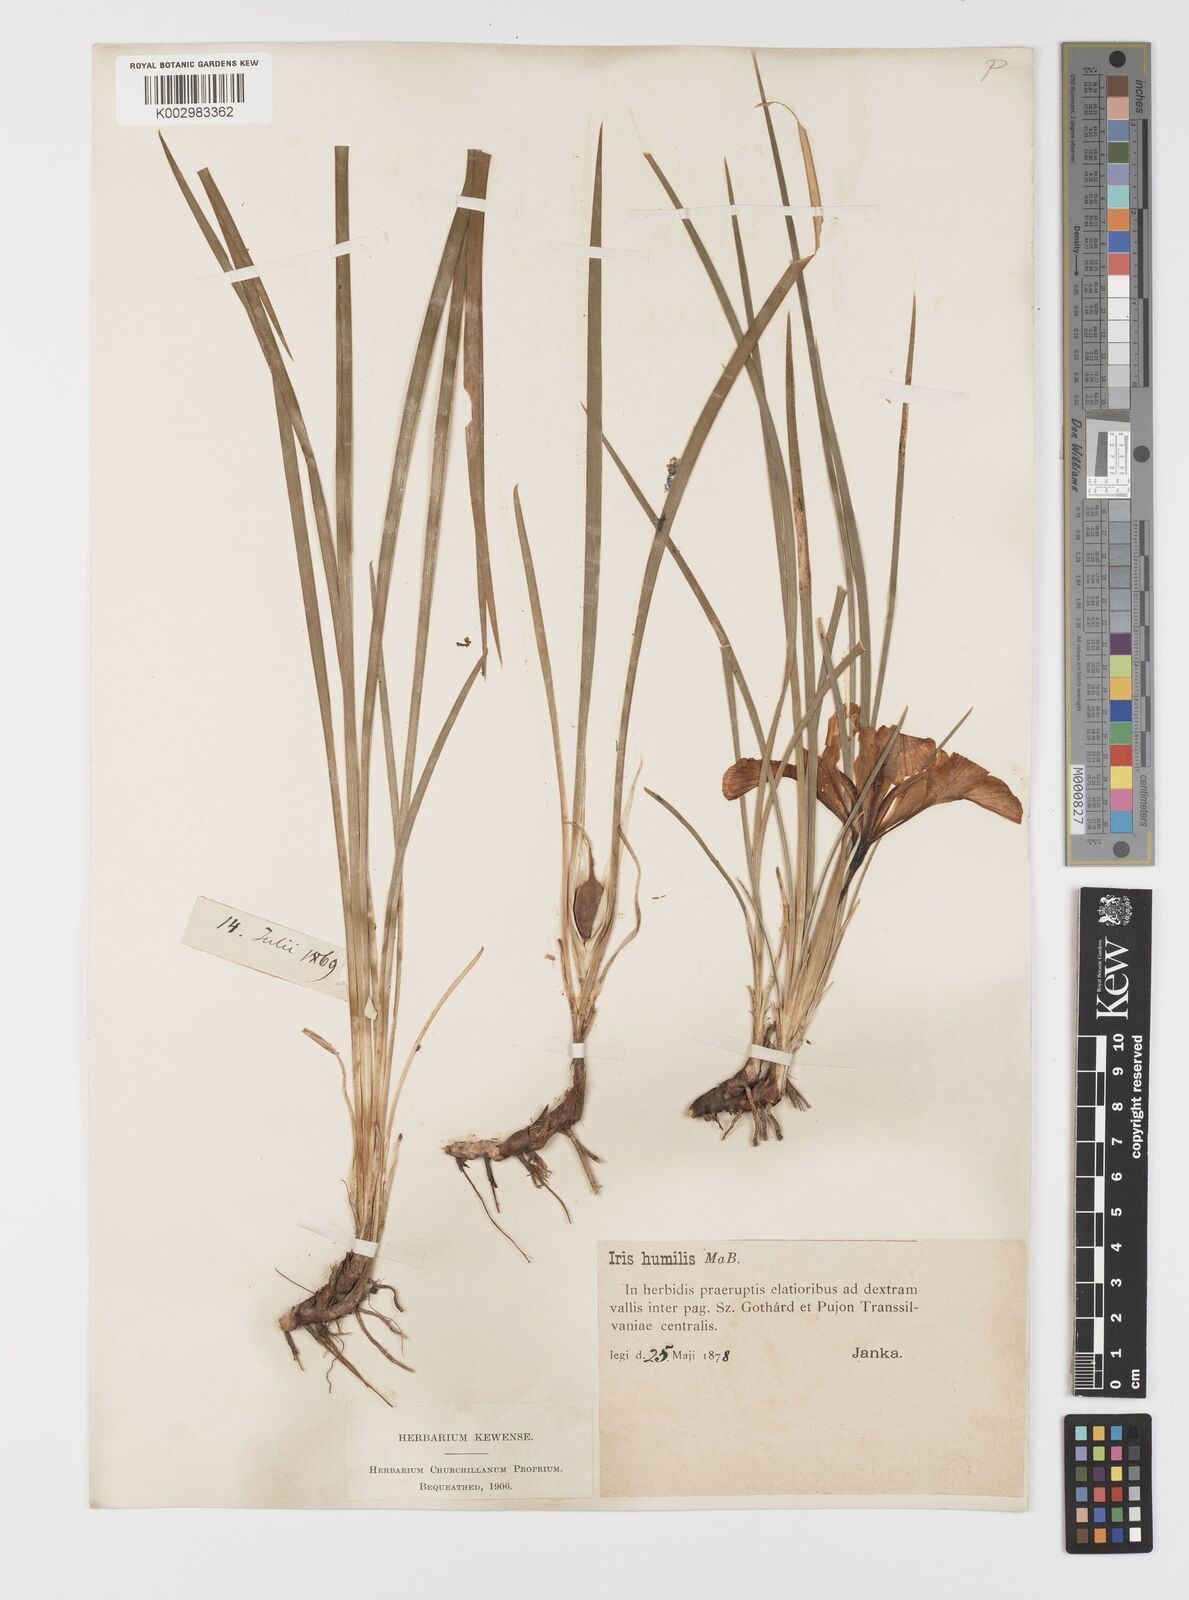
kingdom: Plantae
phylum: Tracheophyta
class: Liliopsida
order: Asparagales
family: Iridaceae
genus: Iris
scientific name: Iris pontica
